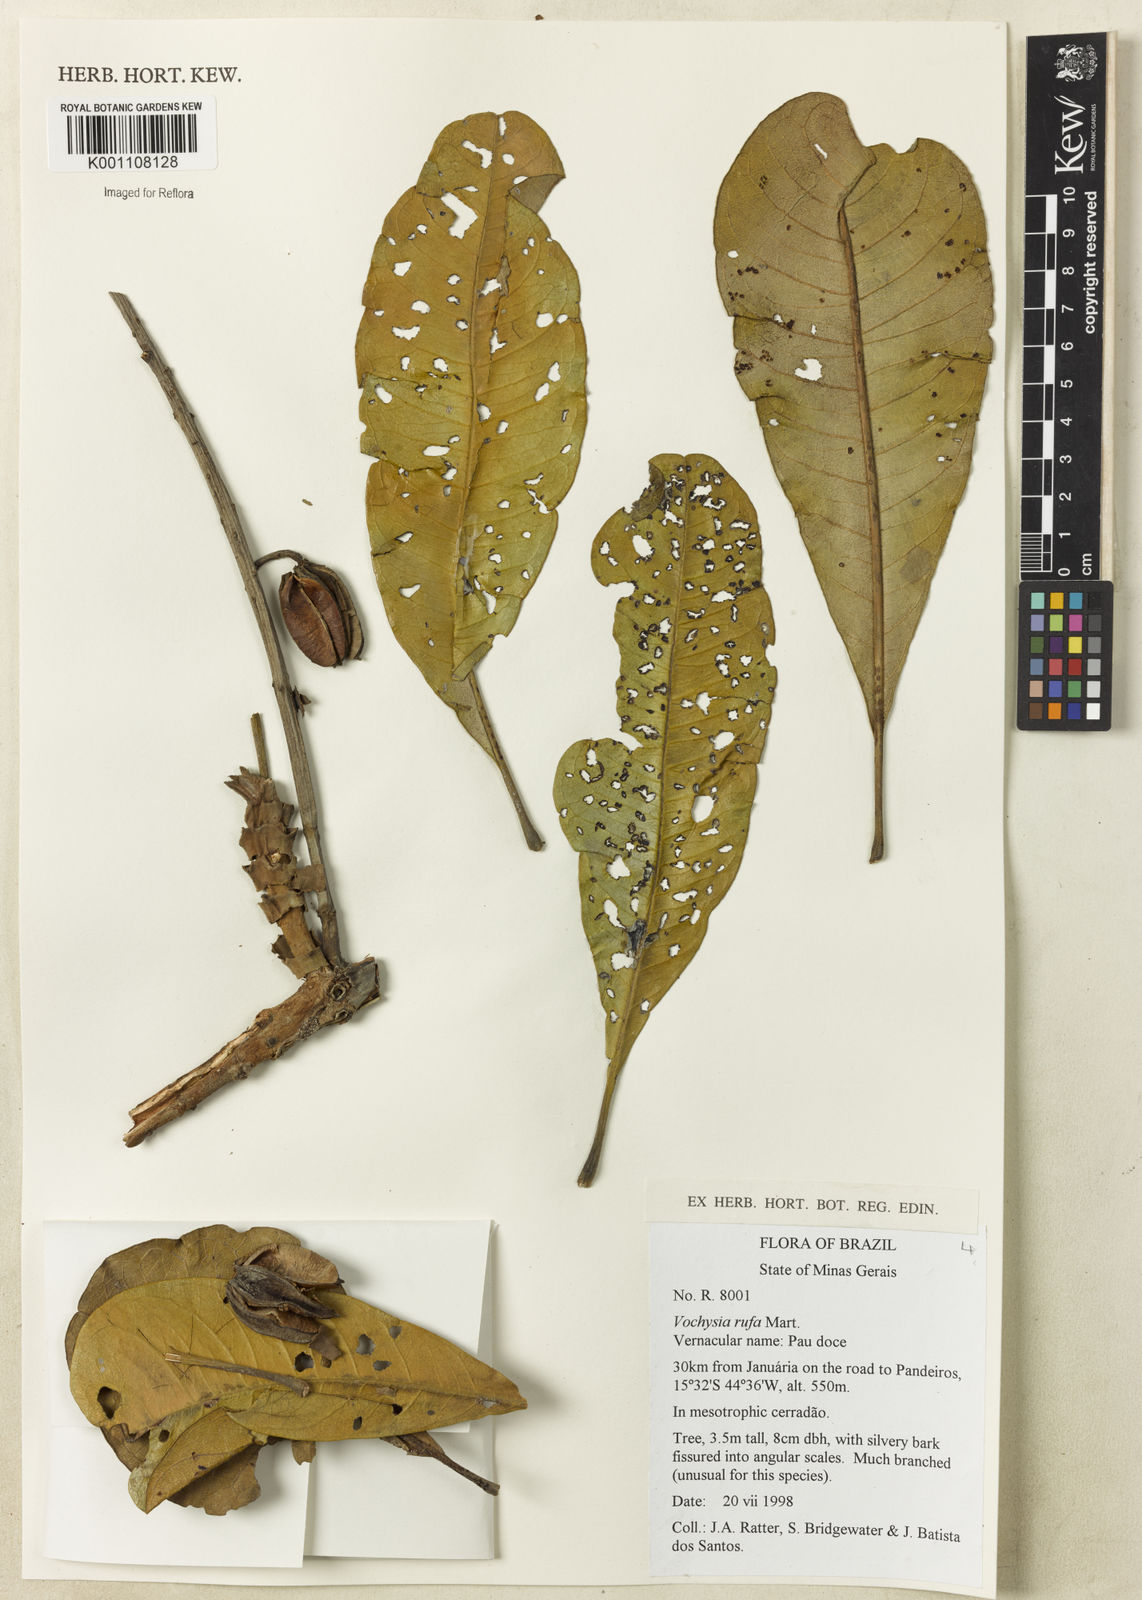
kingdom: Plantae
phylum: Tracheophyta
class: Magnoliopsida
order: Myrtales
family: Vochysiaceae
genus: Vochysia
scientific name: Vochysia rufa
